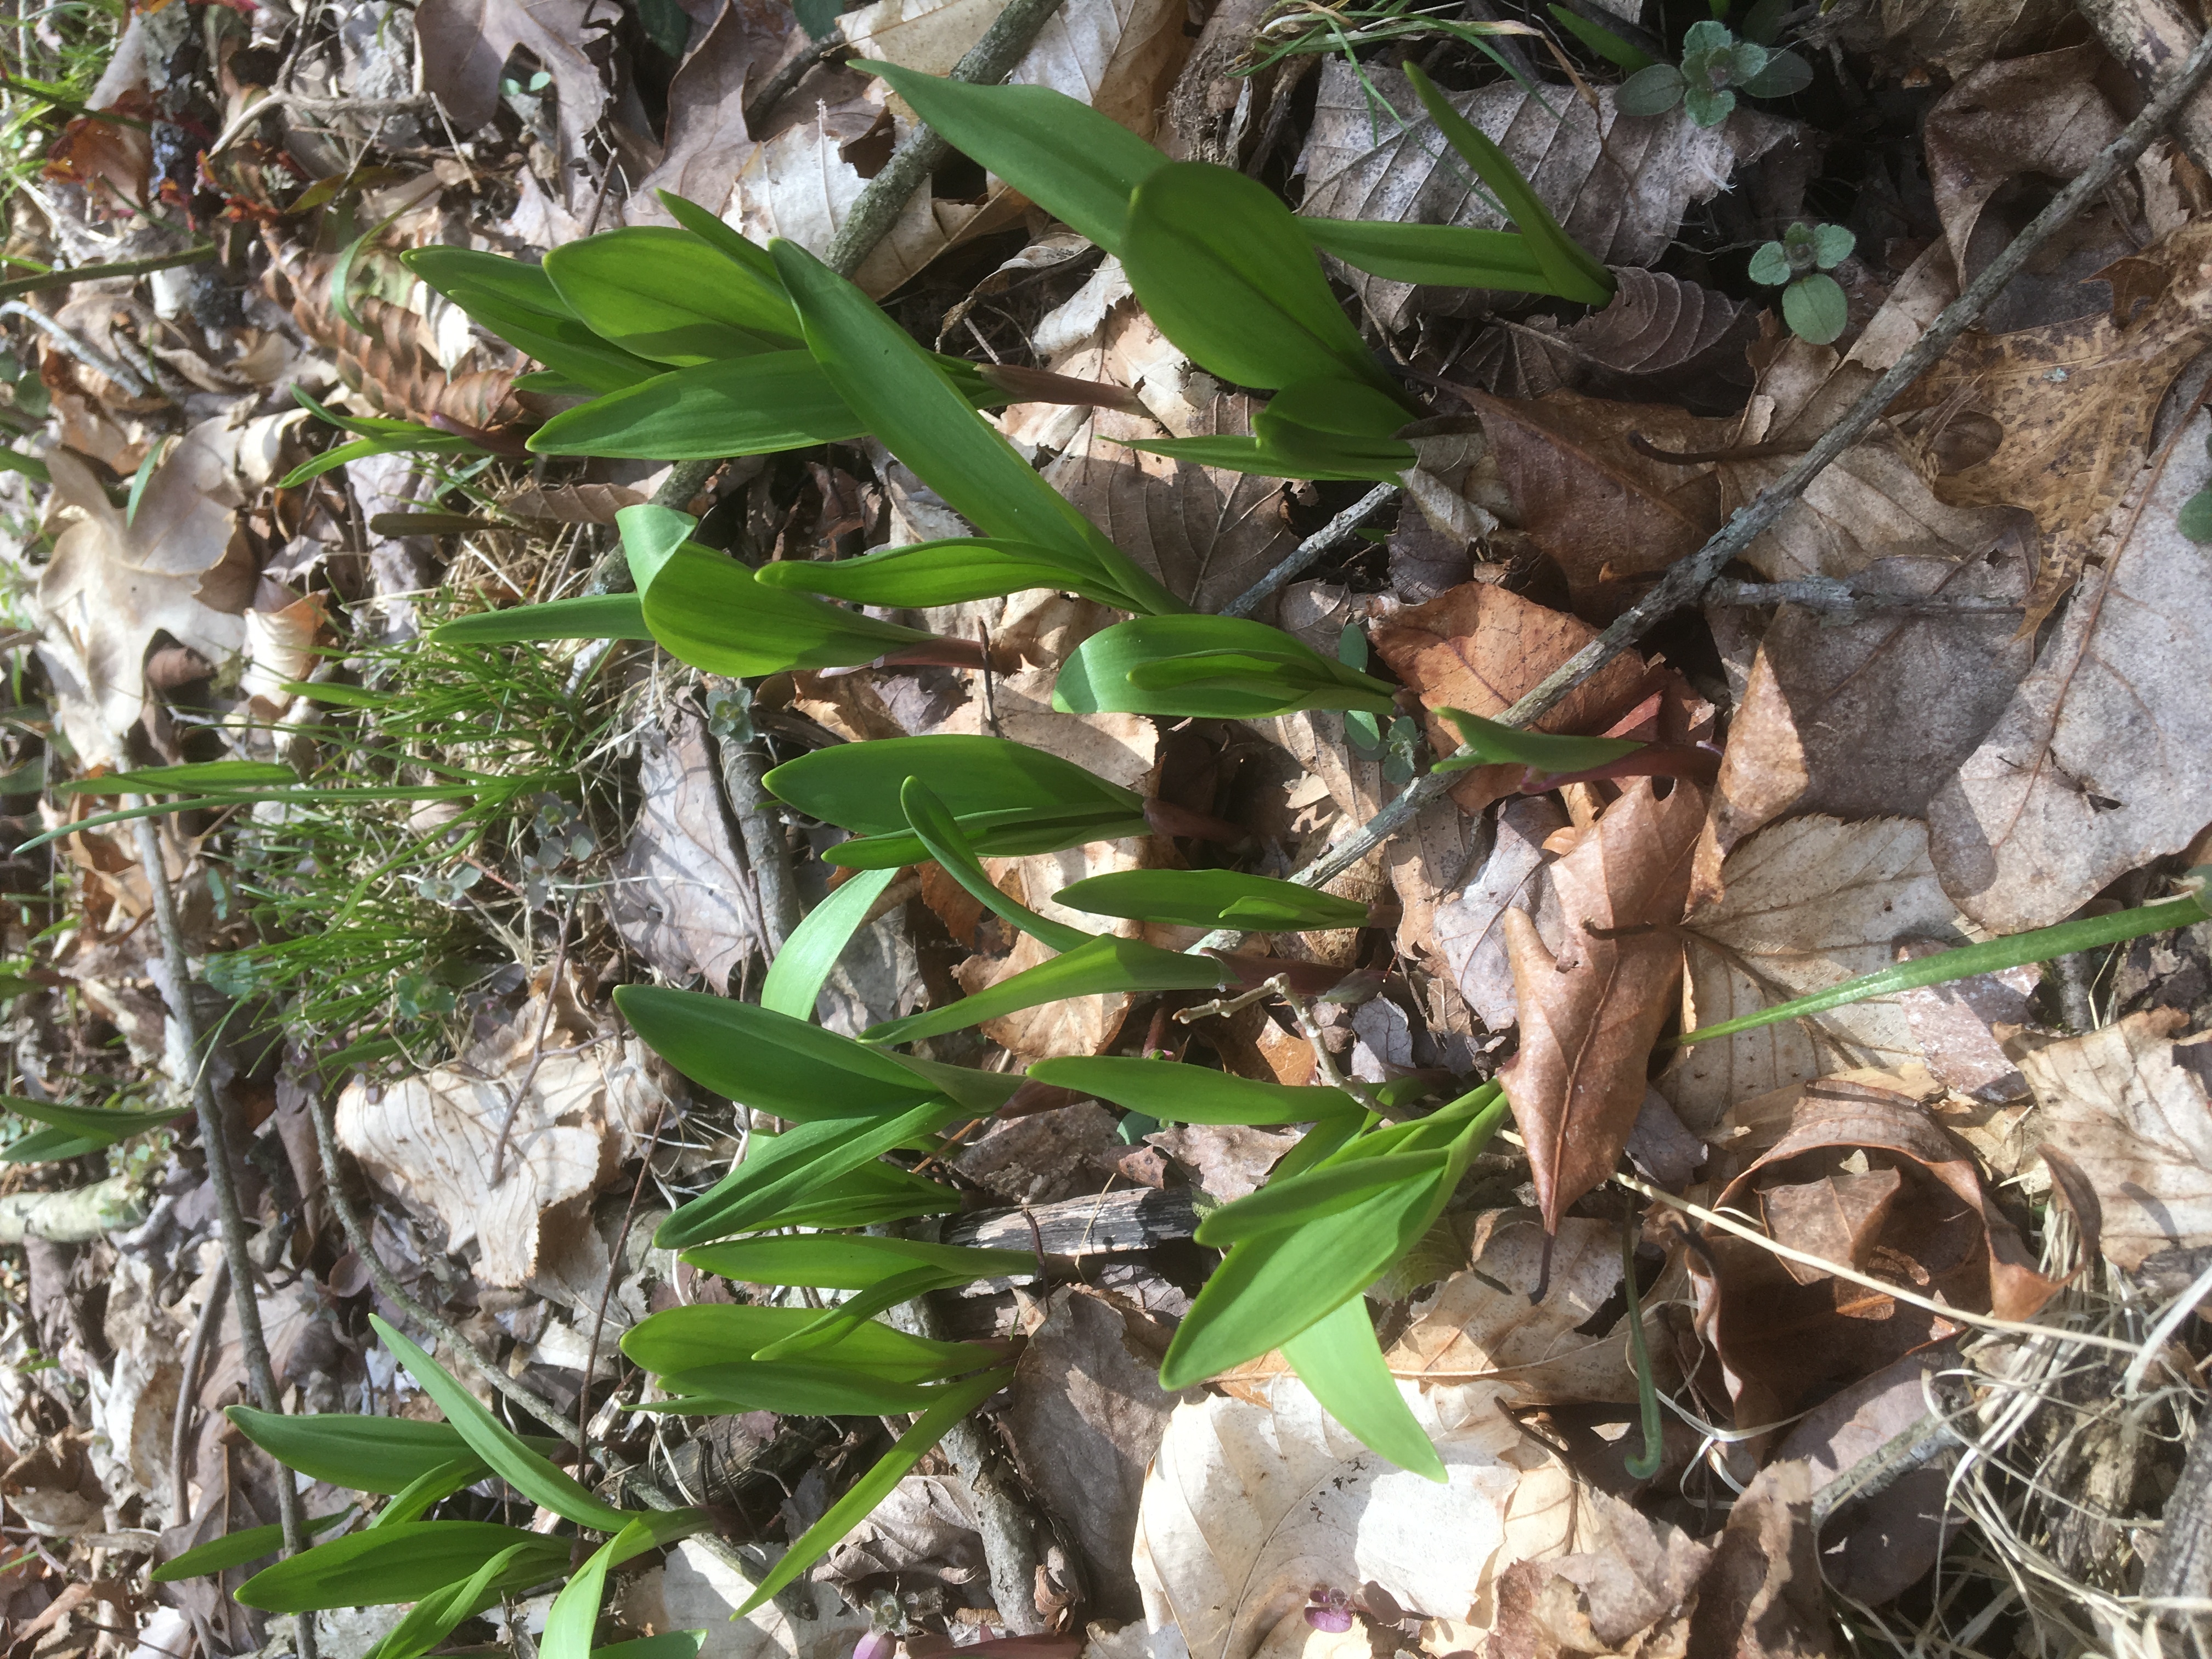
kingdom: Plantae
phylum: Tracheophyta
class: Liliopsida
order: Asparagales
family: Amaryllidaceae
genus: Allium
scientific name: Allium tricoccum
